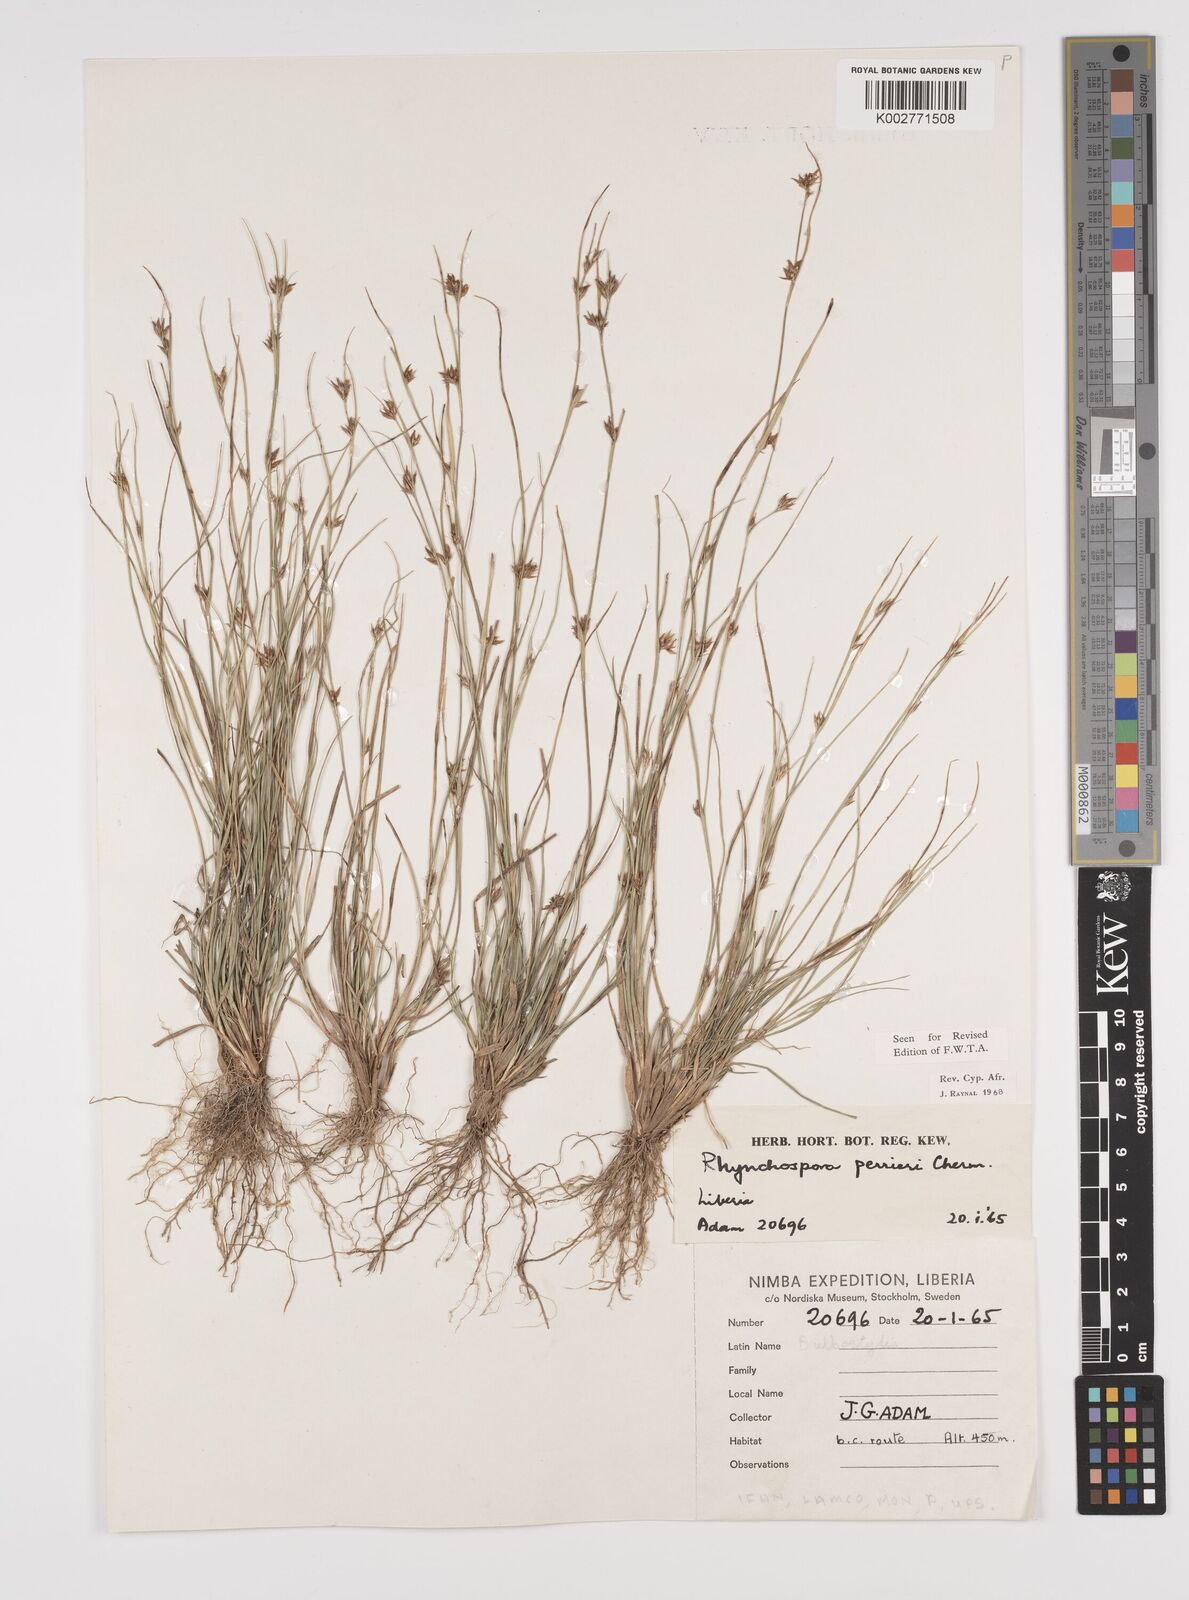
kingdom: Plantae
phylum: Tracheophyta
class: Liliopsida
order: Poales
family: Cyperaceae
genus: Rhynchospora
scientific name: Rhynchospora perrieri
